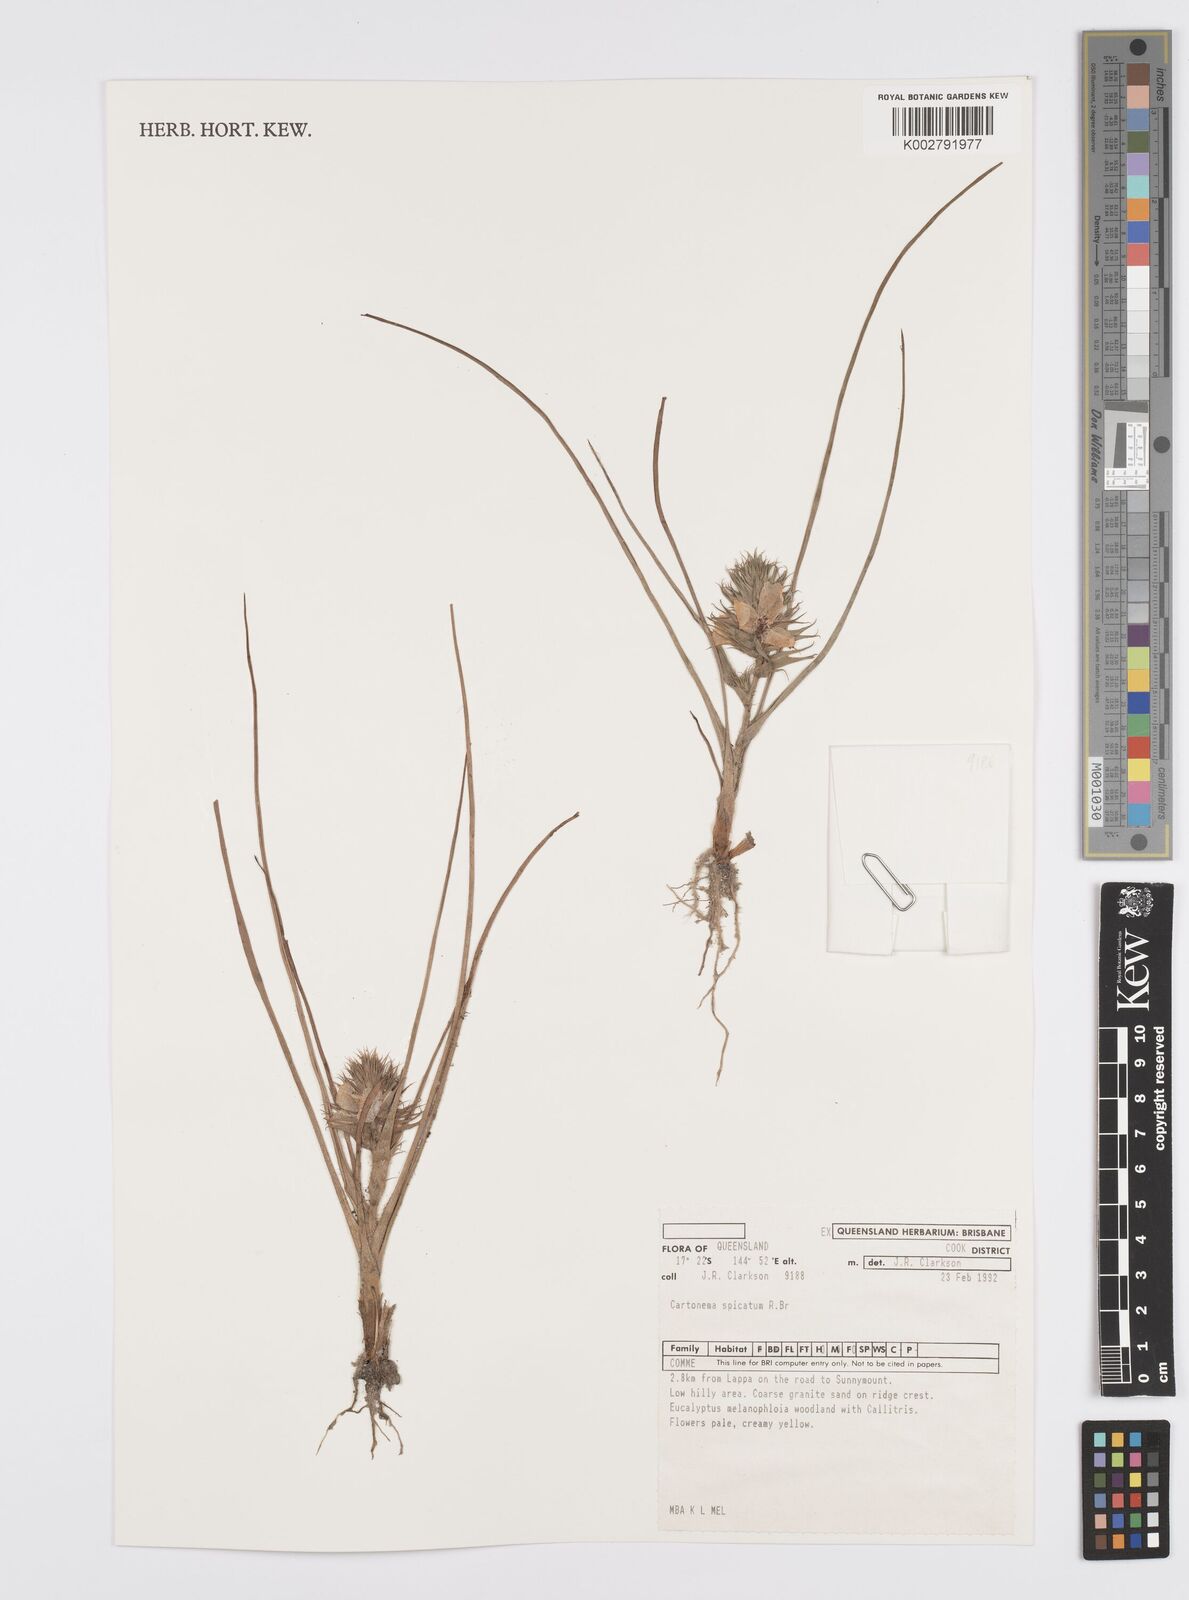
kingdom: Plantae
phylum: Tracheophyta
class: Liliopsida
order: Commelinales
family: Commelinaceae
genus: Cartonema
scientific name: Cartonema spicatum
